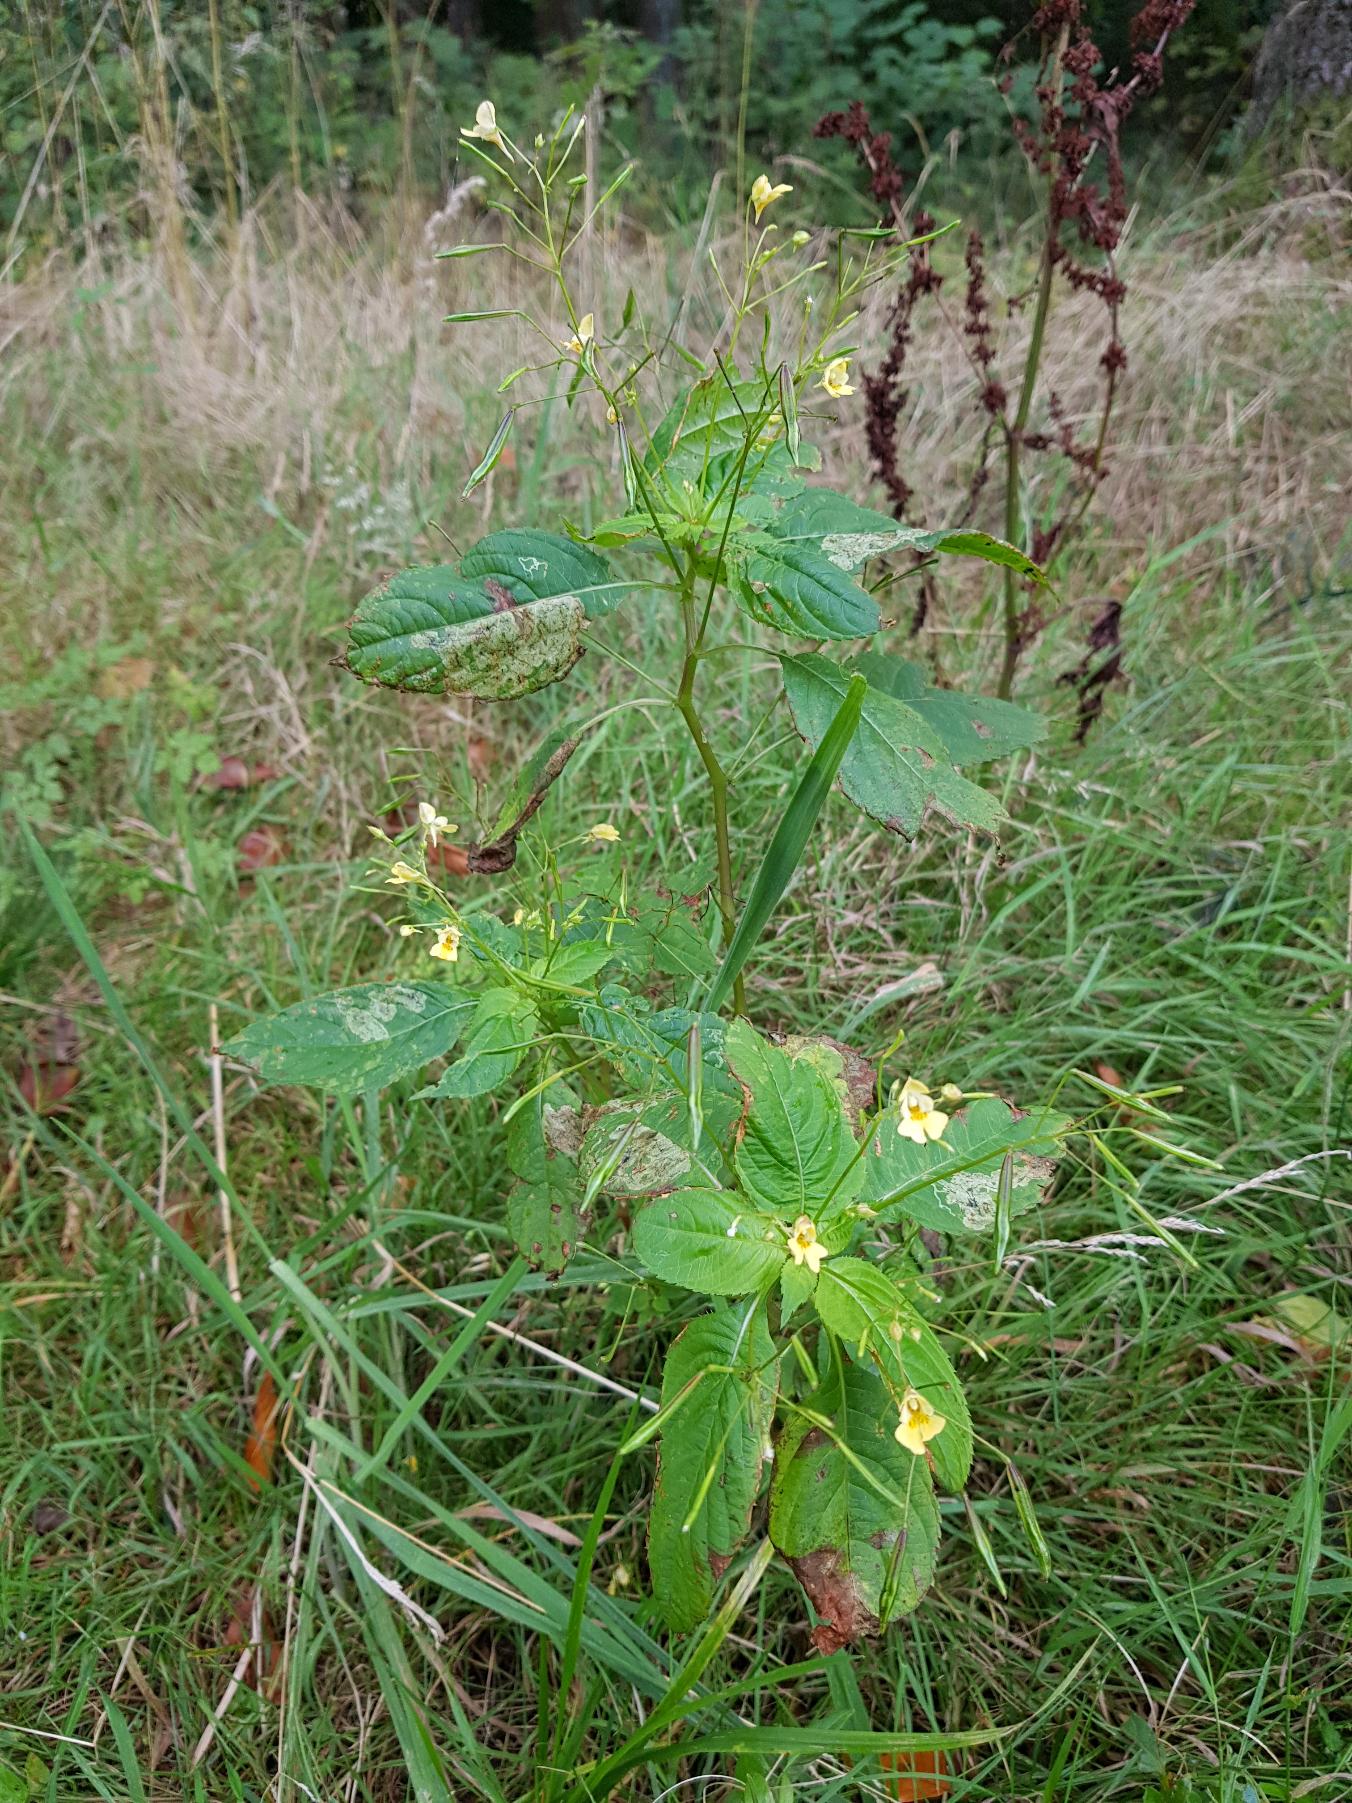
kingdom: Plantae
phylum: Tracheophyta
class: Magnoliopsida
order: Ericales
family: Balsaminaceae
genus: Impatiens
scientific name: Impatiens parviflora
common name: Småblomstret balsamin
